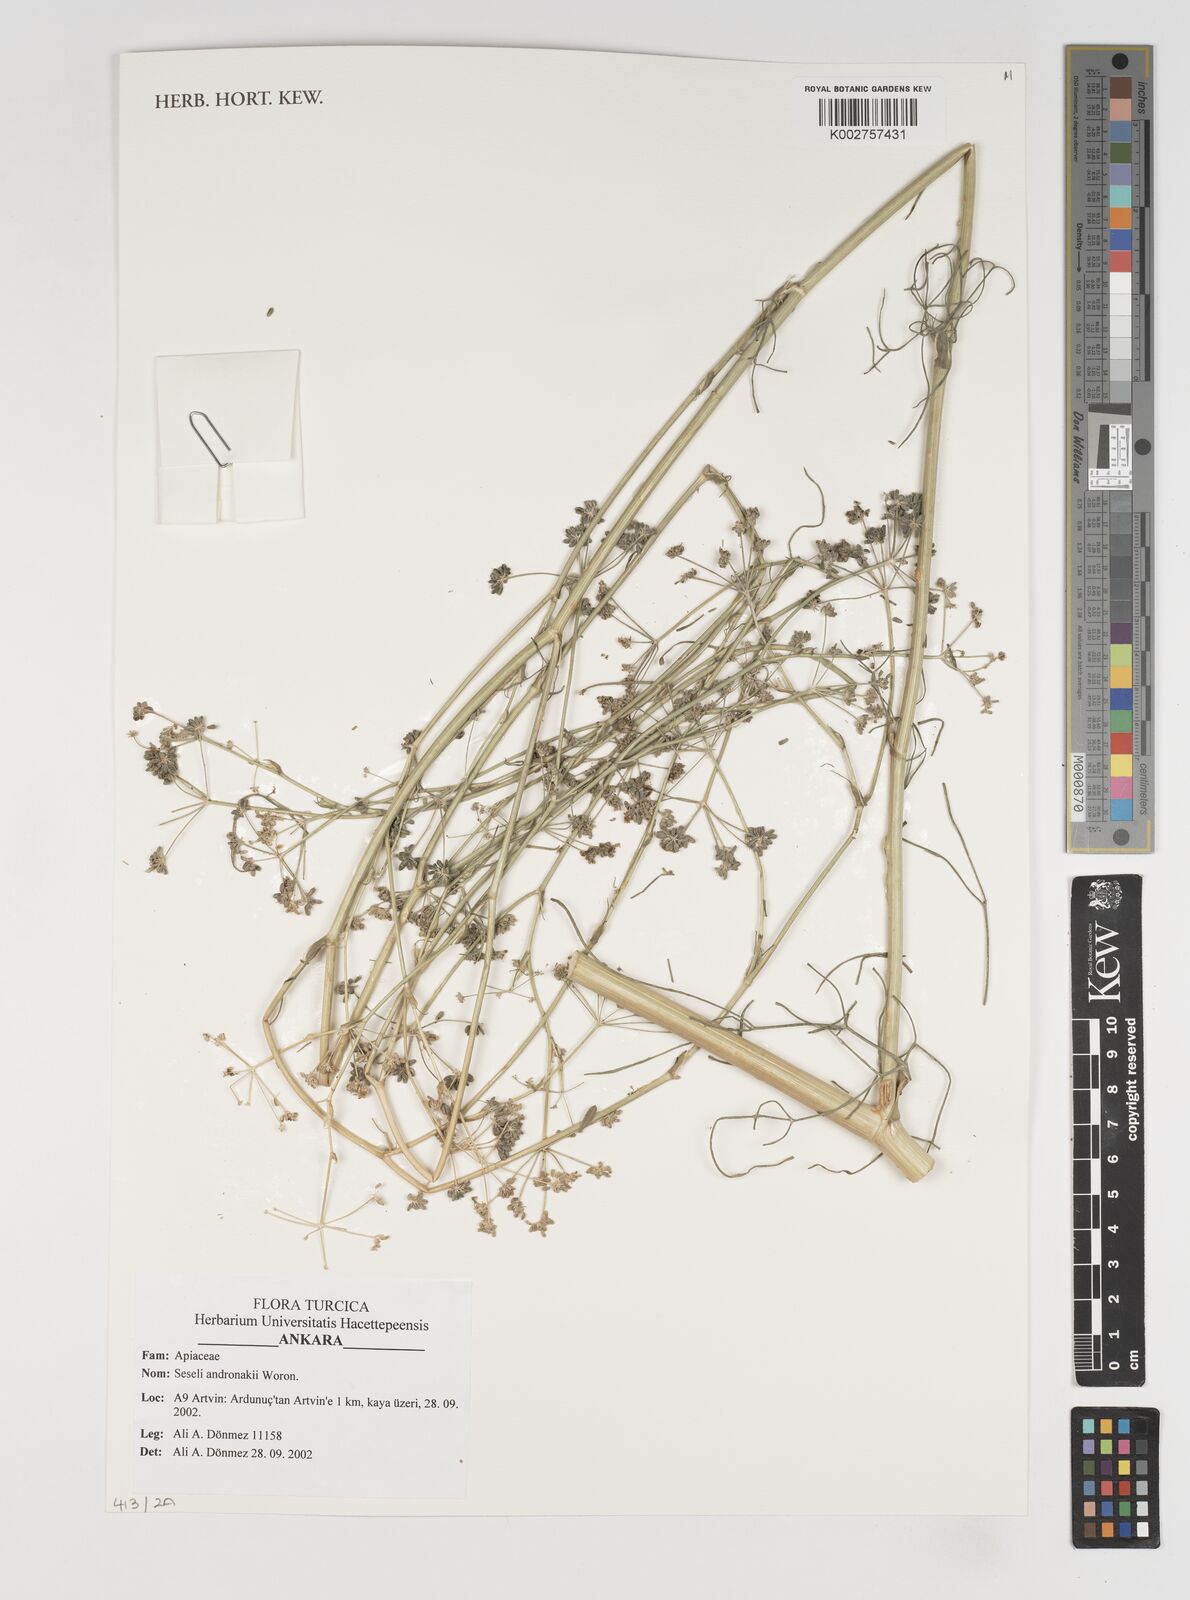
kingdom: Plantae
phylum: Tracheophyta
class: Magnoliopsida
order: Apiales
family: Apiaceae
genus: Seseli
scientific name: Seseli andronakii
